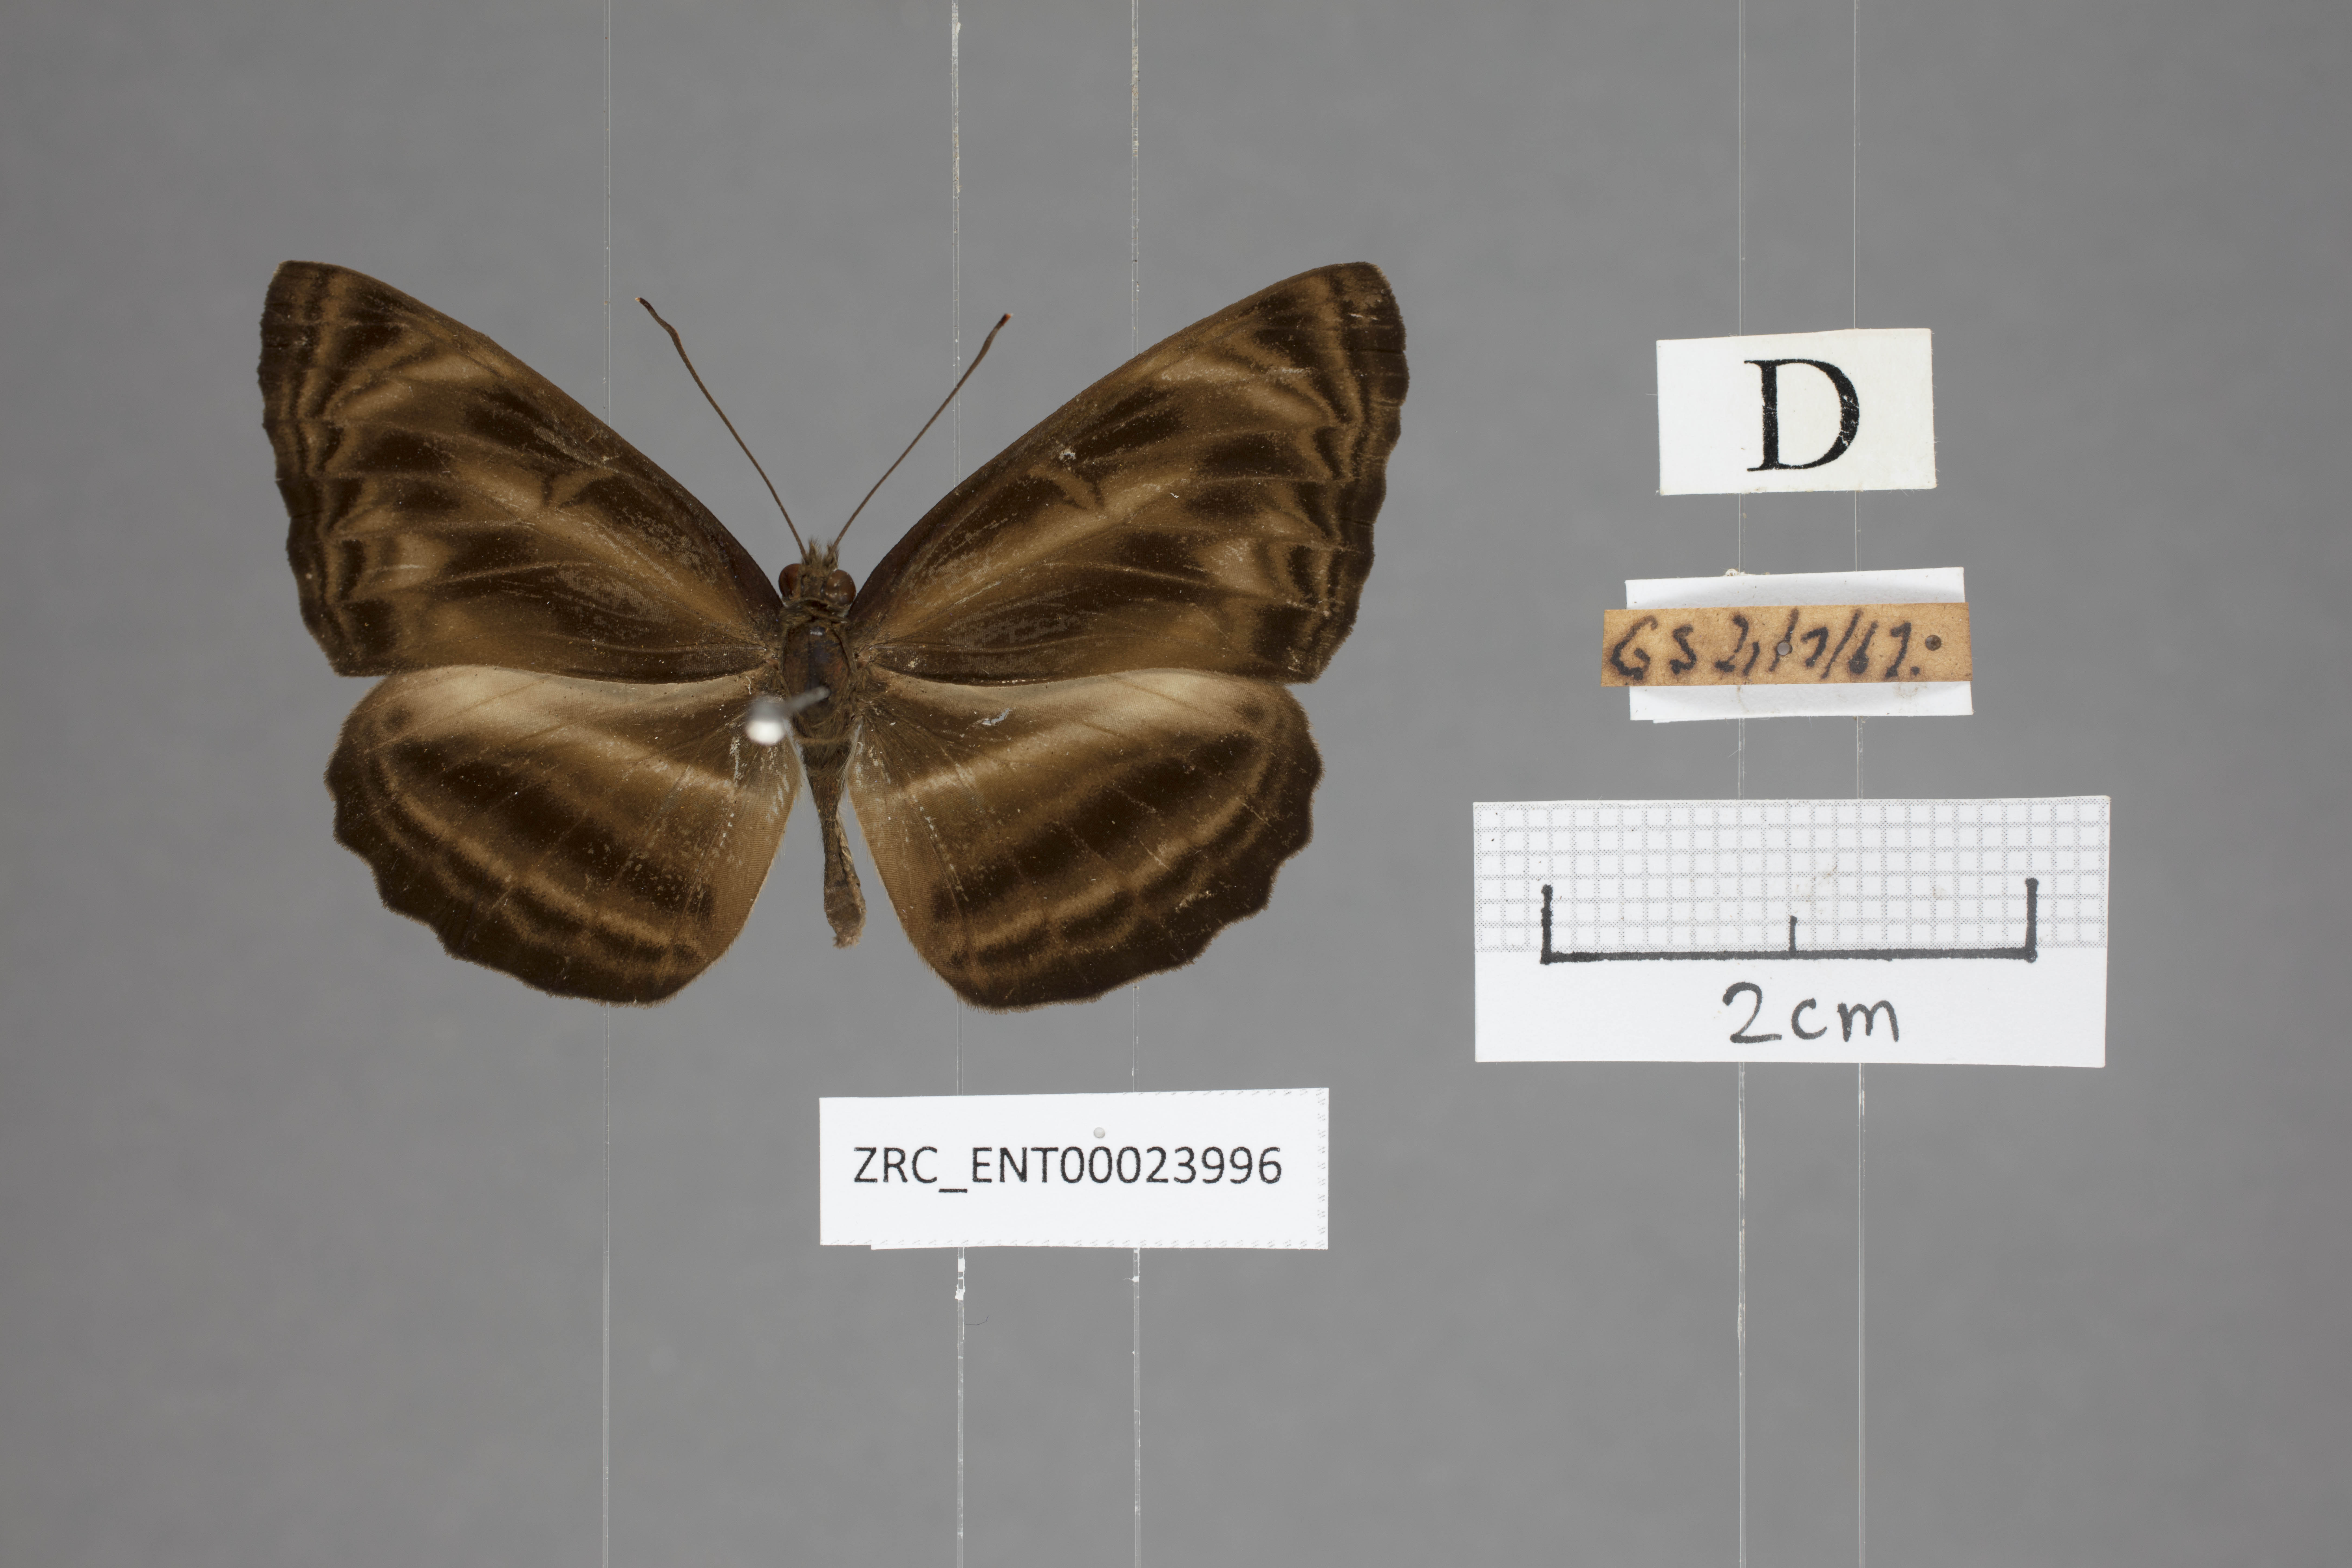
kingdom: Animalia
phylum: Arthropoda
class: Insecta
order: Lepidoptera
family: Nymphalidae
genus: Neptis
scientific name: Neptis harita
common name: Chocolate sailer
